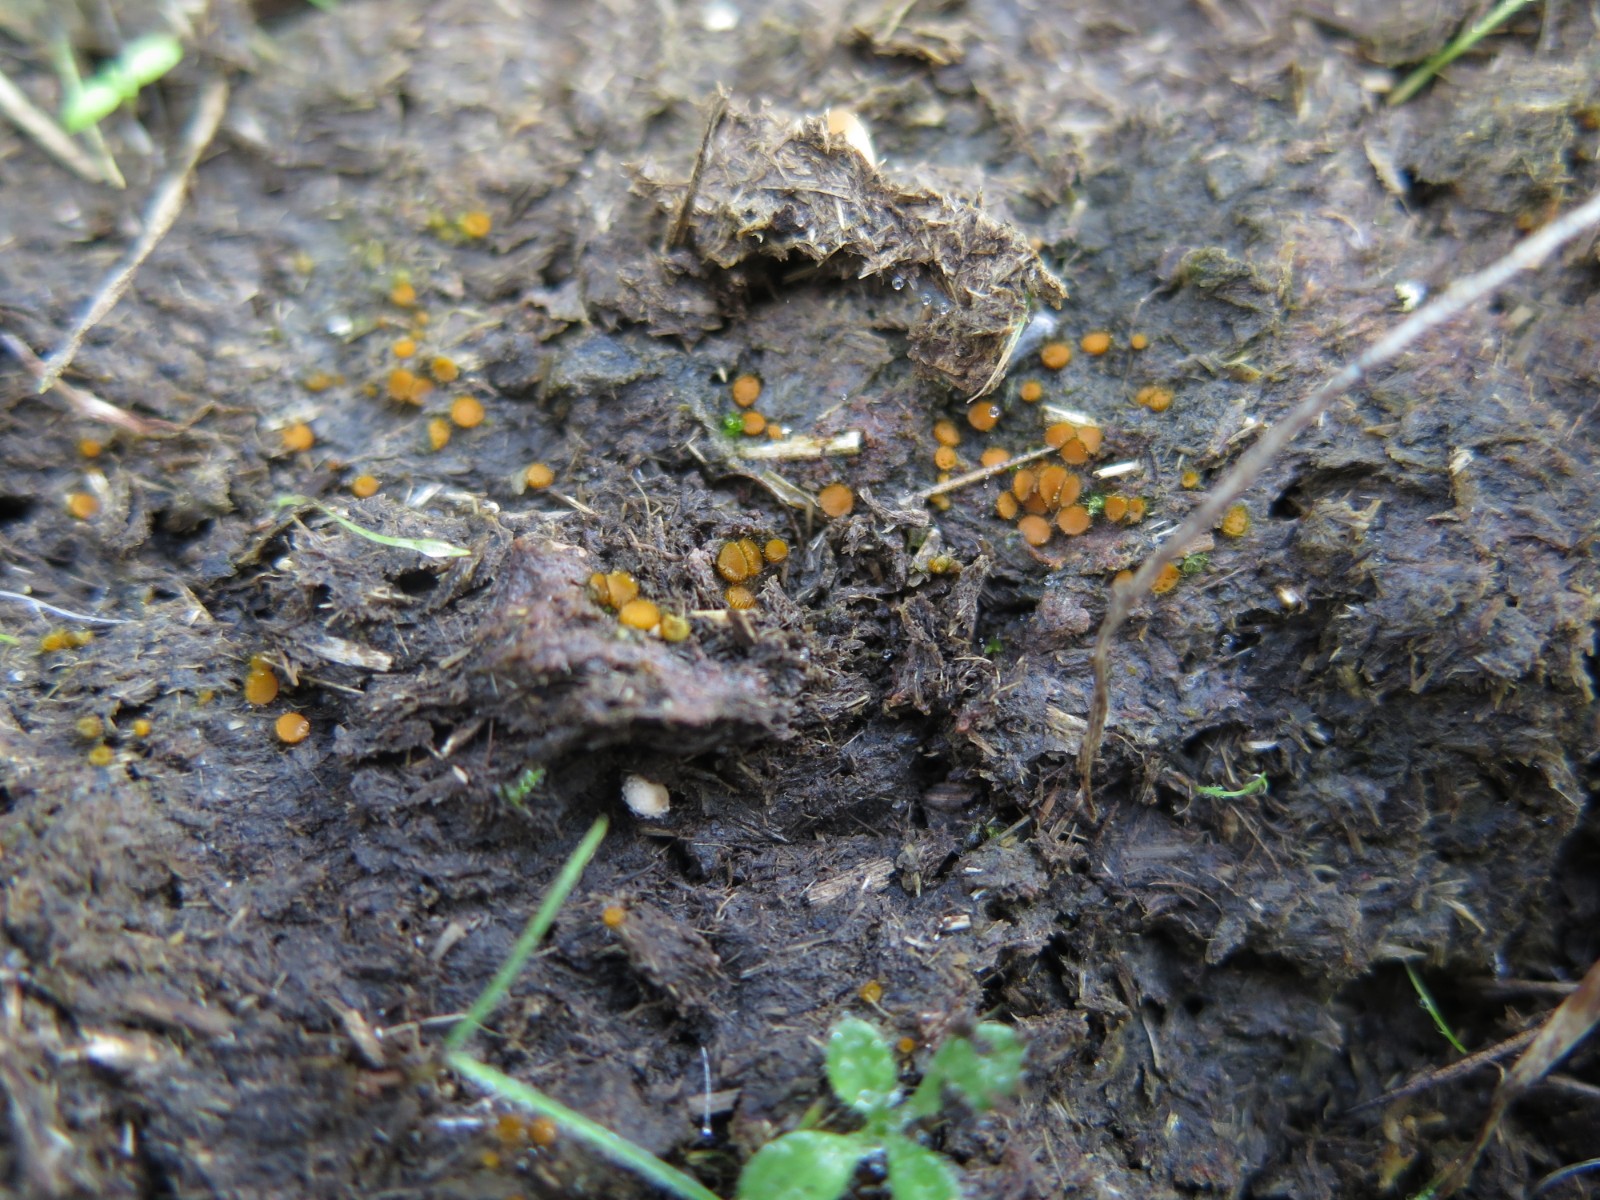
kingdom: Fungi
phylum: Ascomycota
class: Pezizomycetes
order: Pezizales
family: Pyronemataceae
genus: Cheilymenia
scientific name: Cheilymenia fimicola
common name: møg-hårbæger
